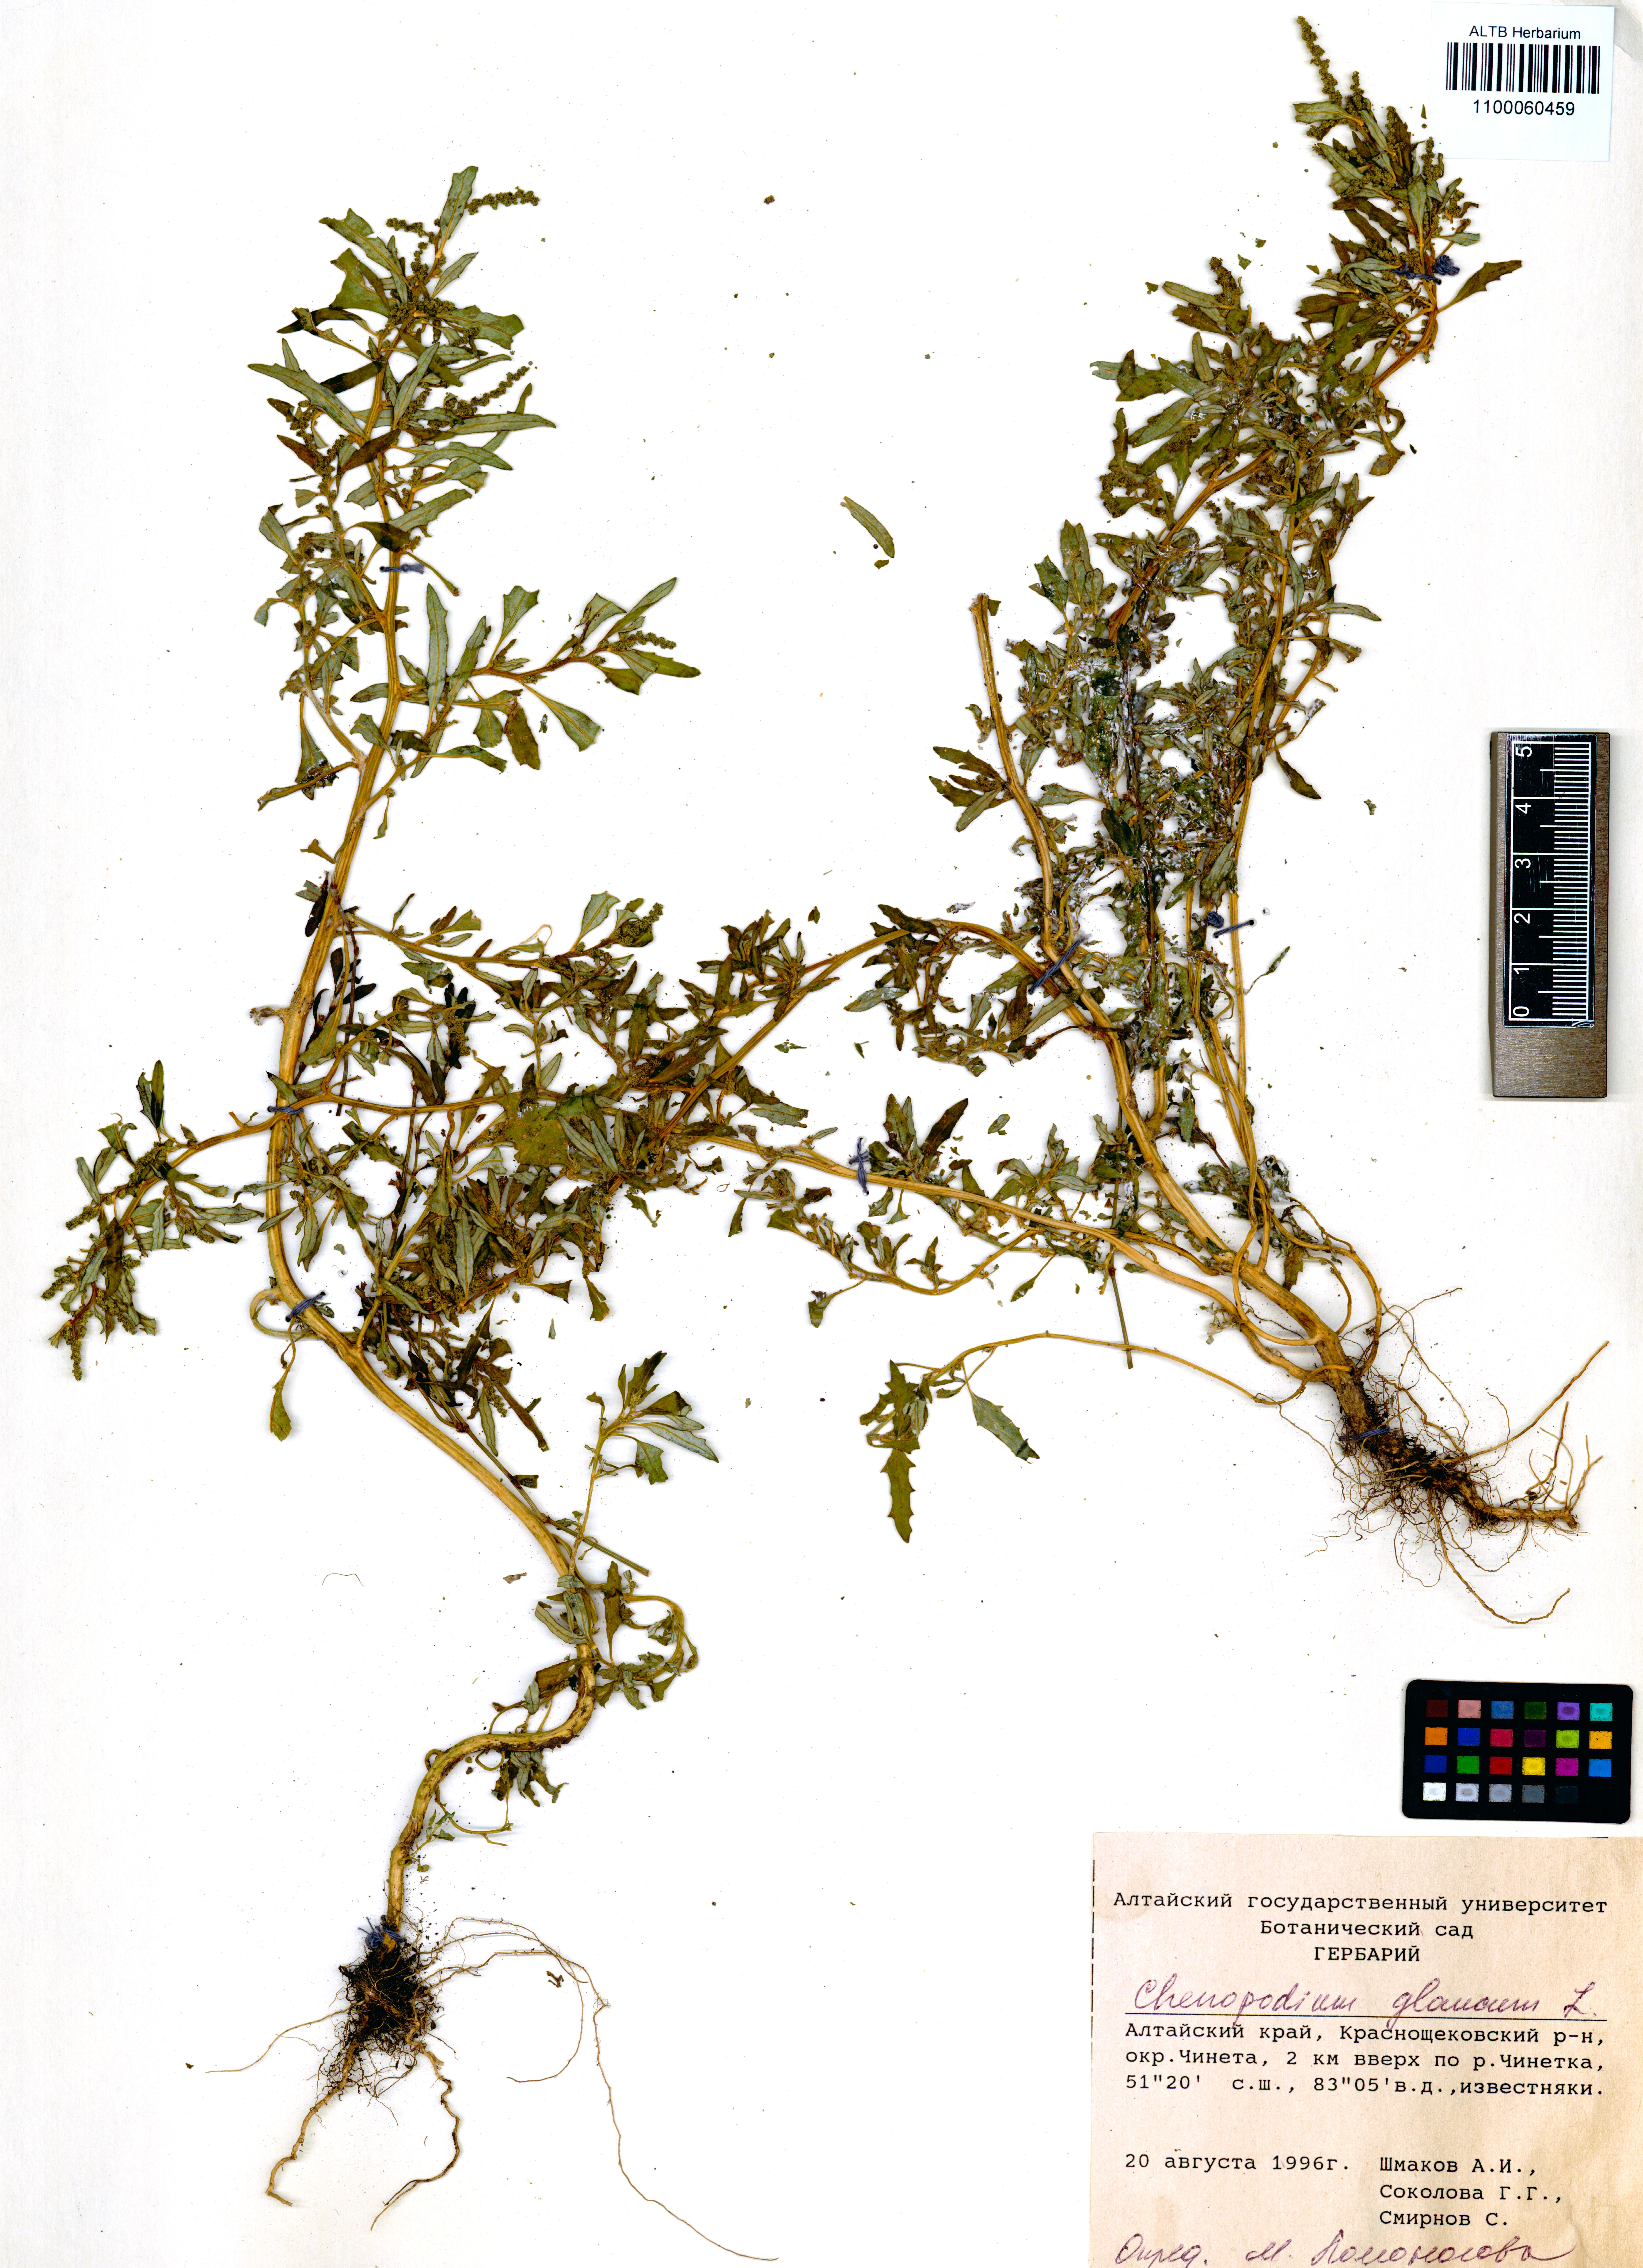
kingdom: Plantae
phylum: Tracheophyta
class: Magnoliopsida
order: Caryophyllales
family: Amaranthaceae
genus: Oxybasis
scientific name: Oxybasis glauca
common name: Glaucous goosefoot
